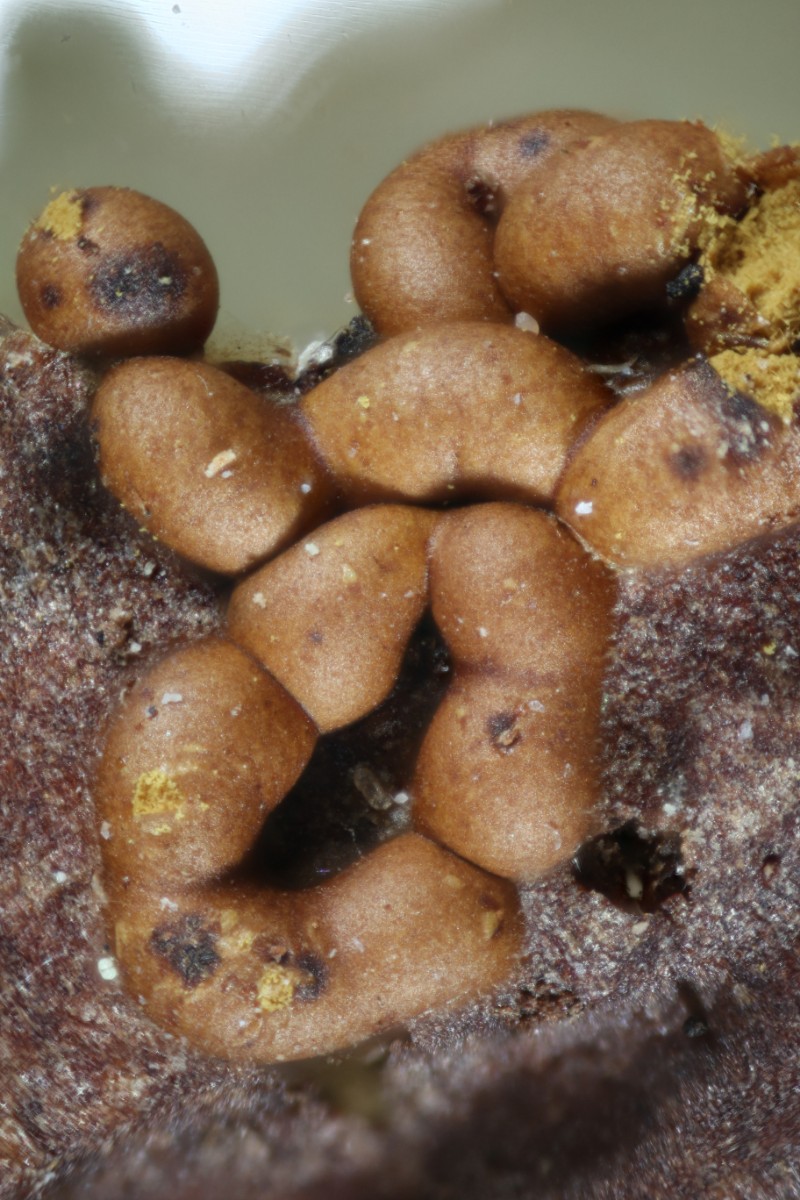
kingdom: Protozoa
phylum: Mycetozoa
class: Myxomycetes
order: Trichiales
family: Trichiaceae
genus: Trichia
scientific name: Trichia contorta
